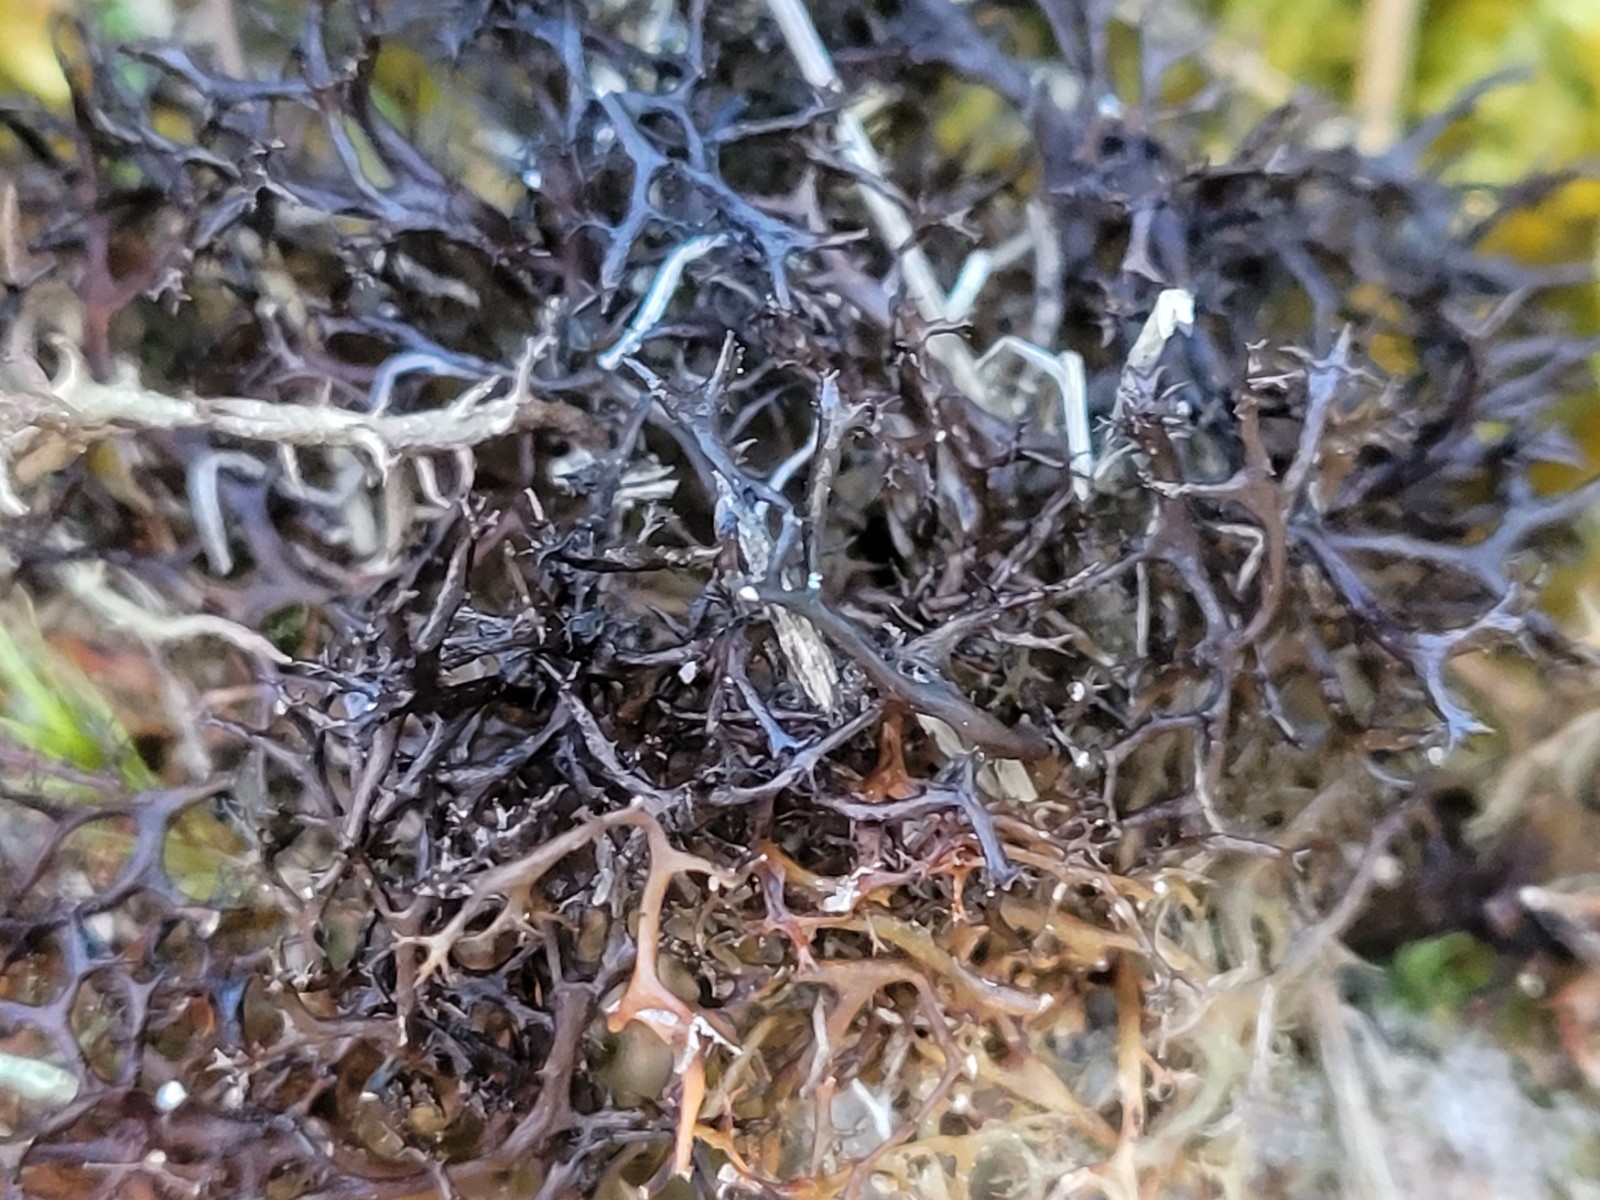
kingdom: Fungi
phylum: Ascomycota
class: Lecanoromycetes
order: Lecanorales
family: Parmeliaceae
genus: Cetraria
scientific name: Cetraria aculeata
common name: grubet tjørnelav
